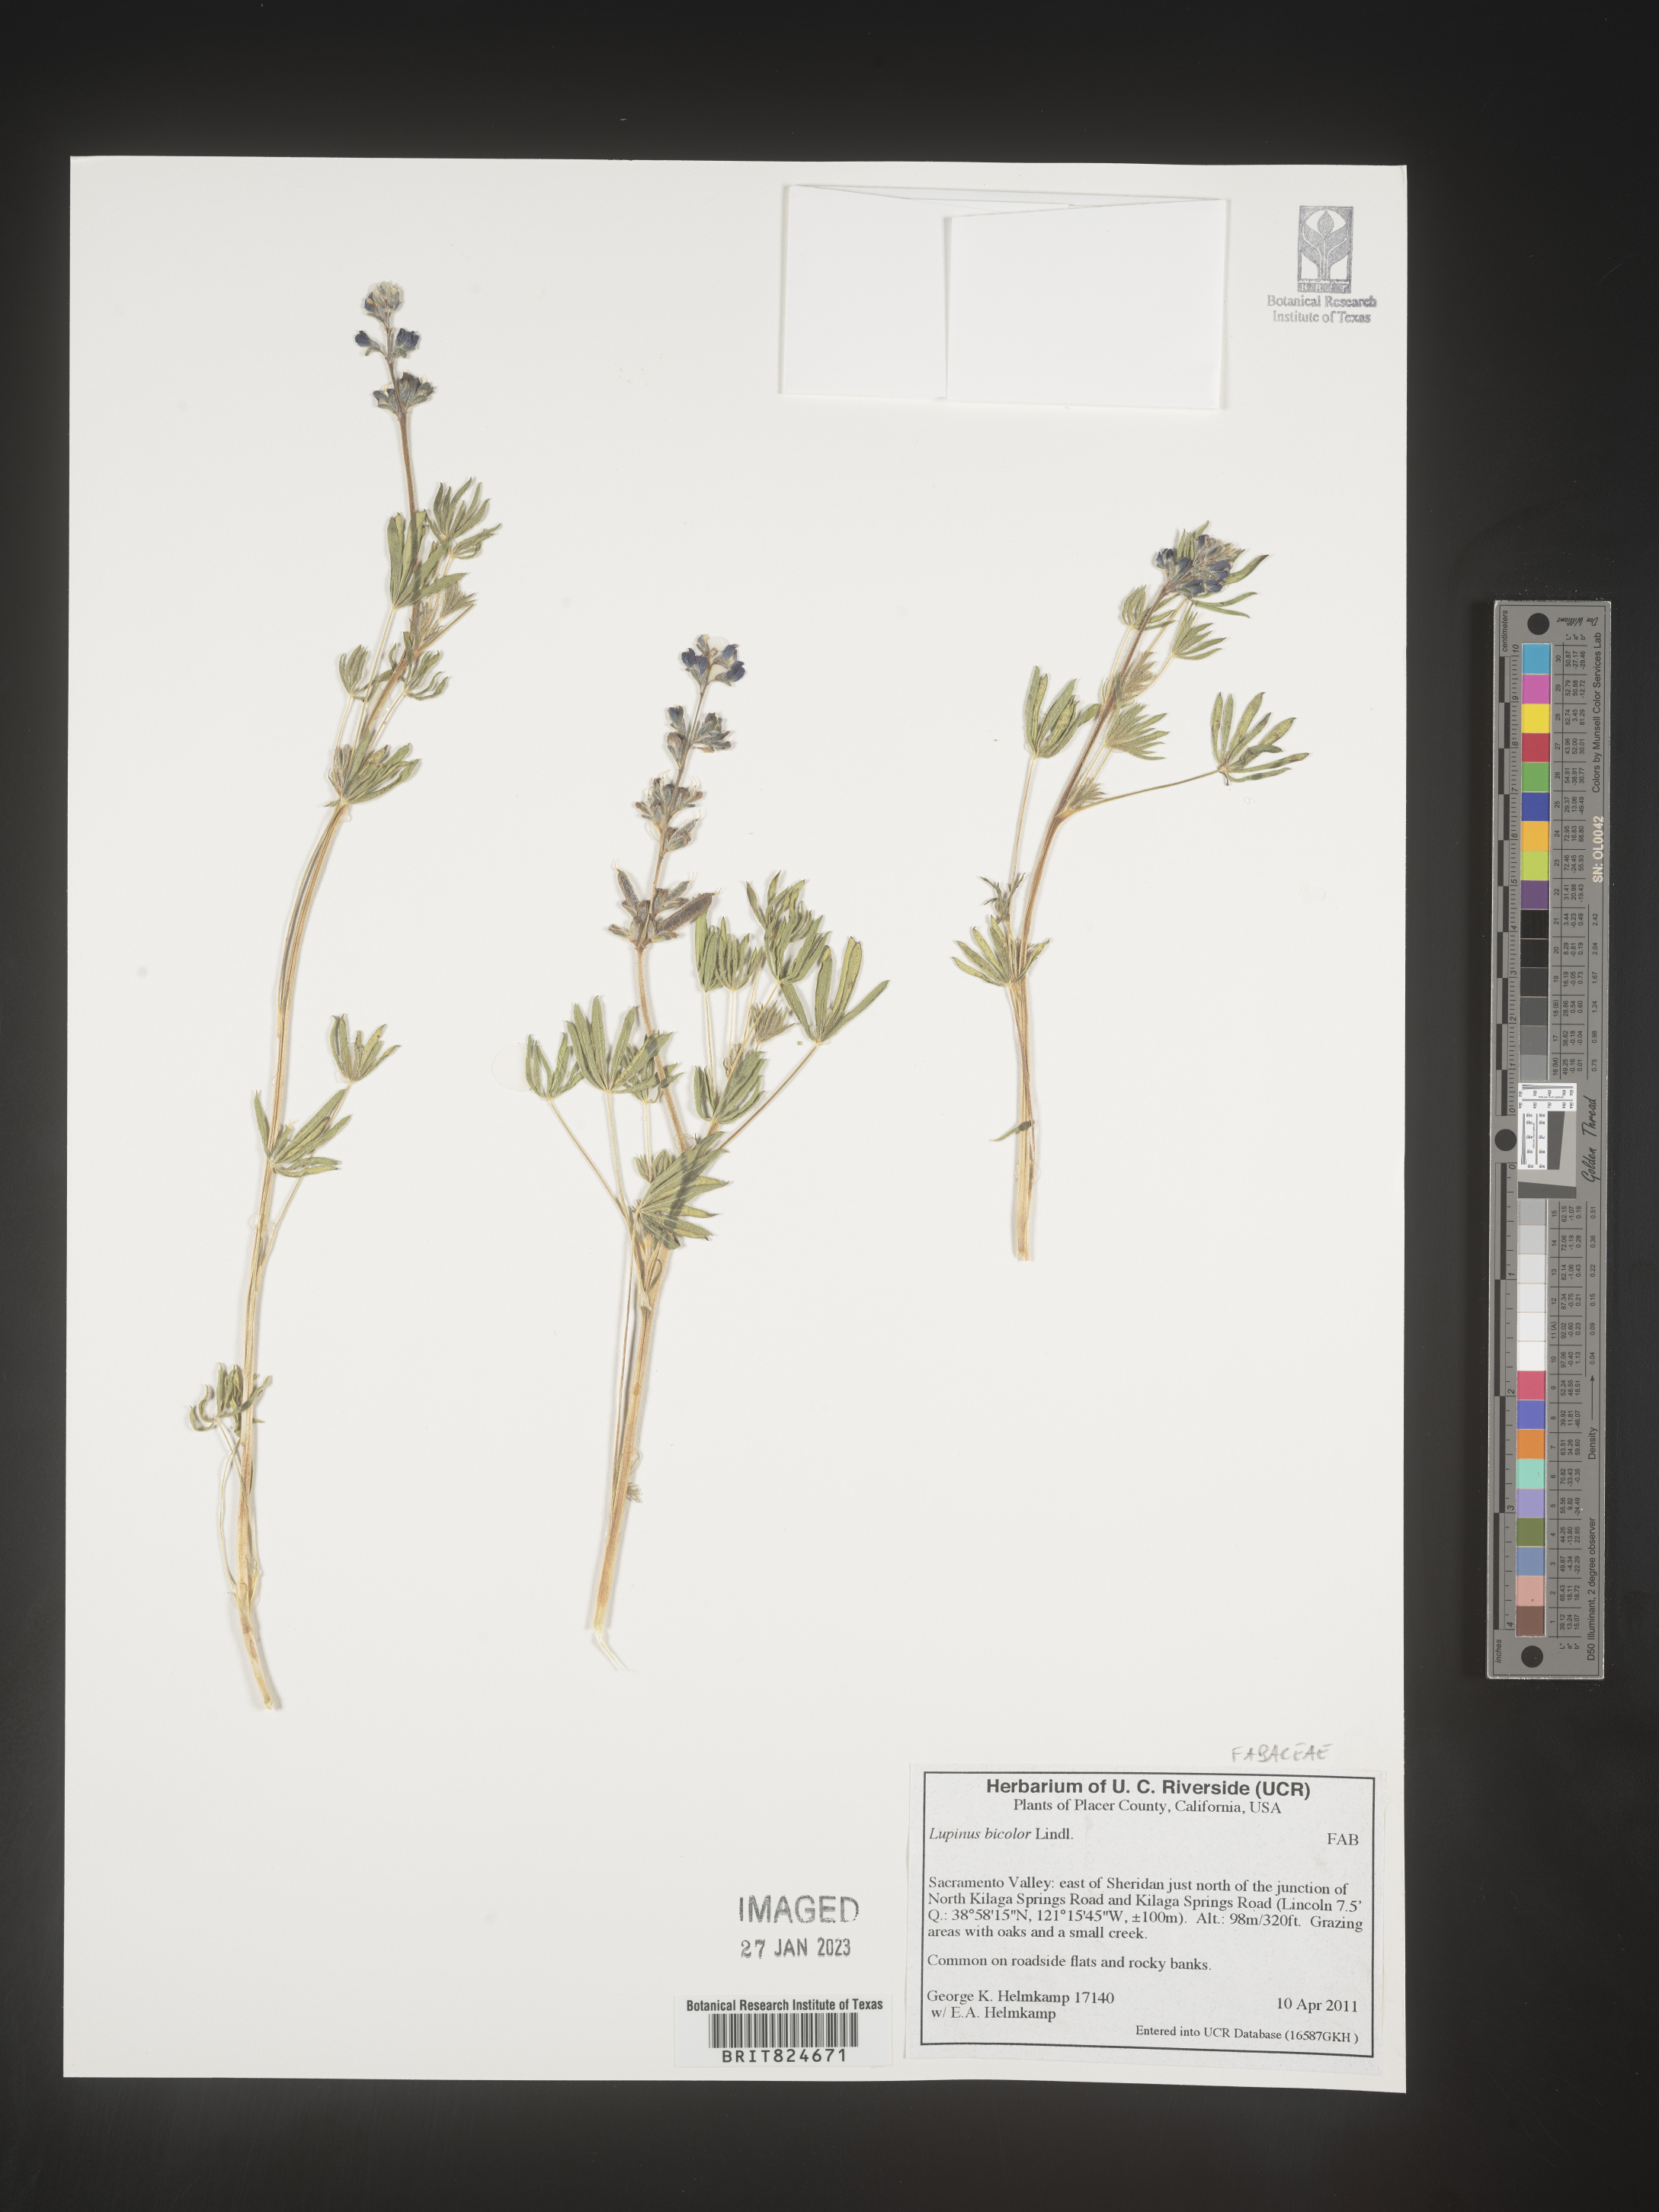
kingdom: Plantae
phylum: Tracheophyta
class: Magnoliopsida
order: Fabales
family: Fabaceae
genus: Lupinus
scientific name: Lupinus bicolor
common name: Miniature lupine
